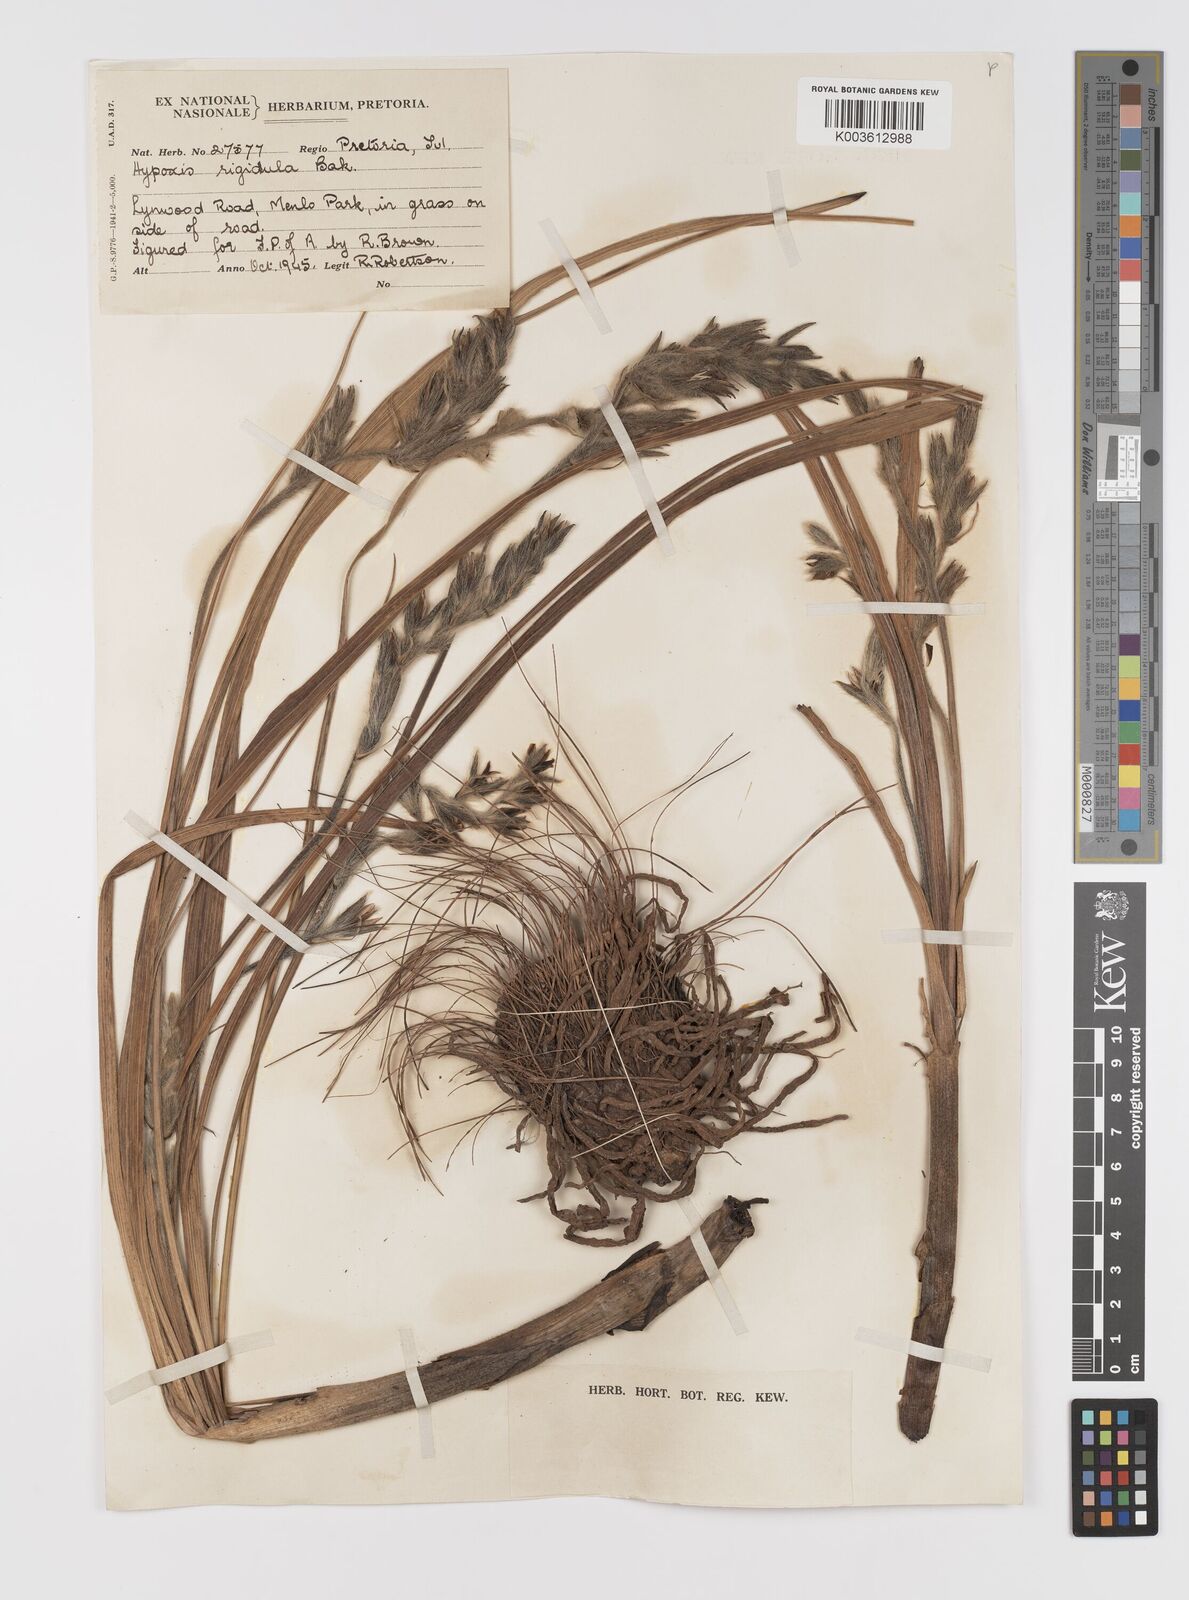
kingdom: Plantae
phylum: Tracheophyta
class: Liliopsida
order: Asparagales
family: Hypoxidaceae
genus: Hypoxis
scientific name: Hypoxis rigidula
